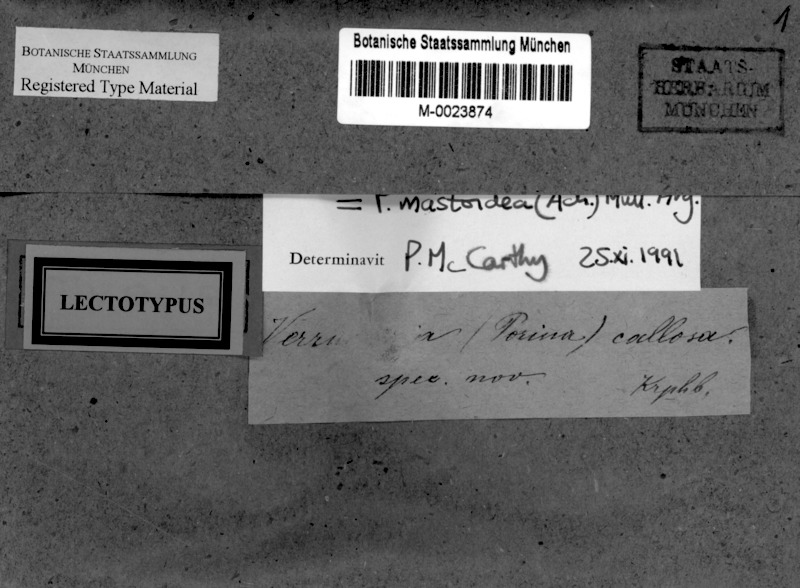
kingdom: Fungi
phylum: Ascomycota
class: Lecanoromycetes
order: Ostropales
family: Porinaceae
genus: Clathroporina
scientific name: Clathroporina mastoidea
